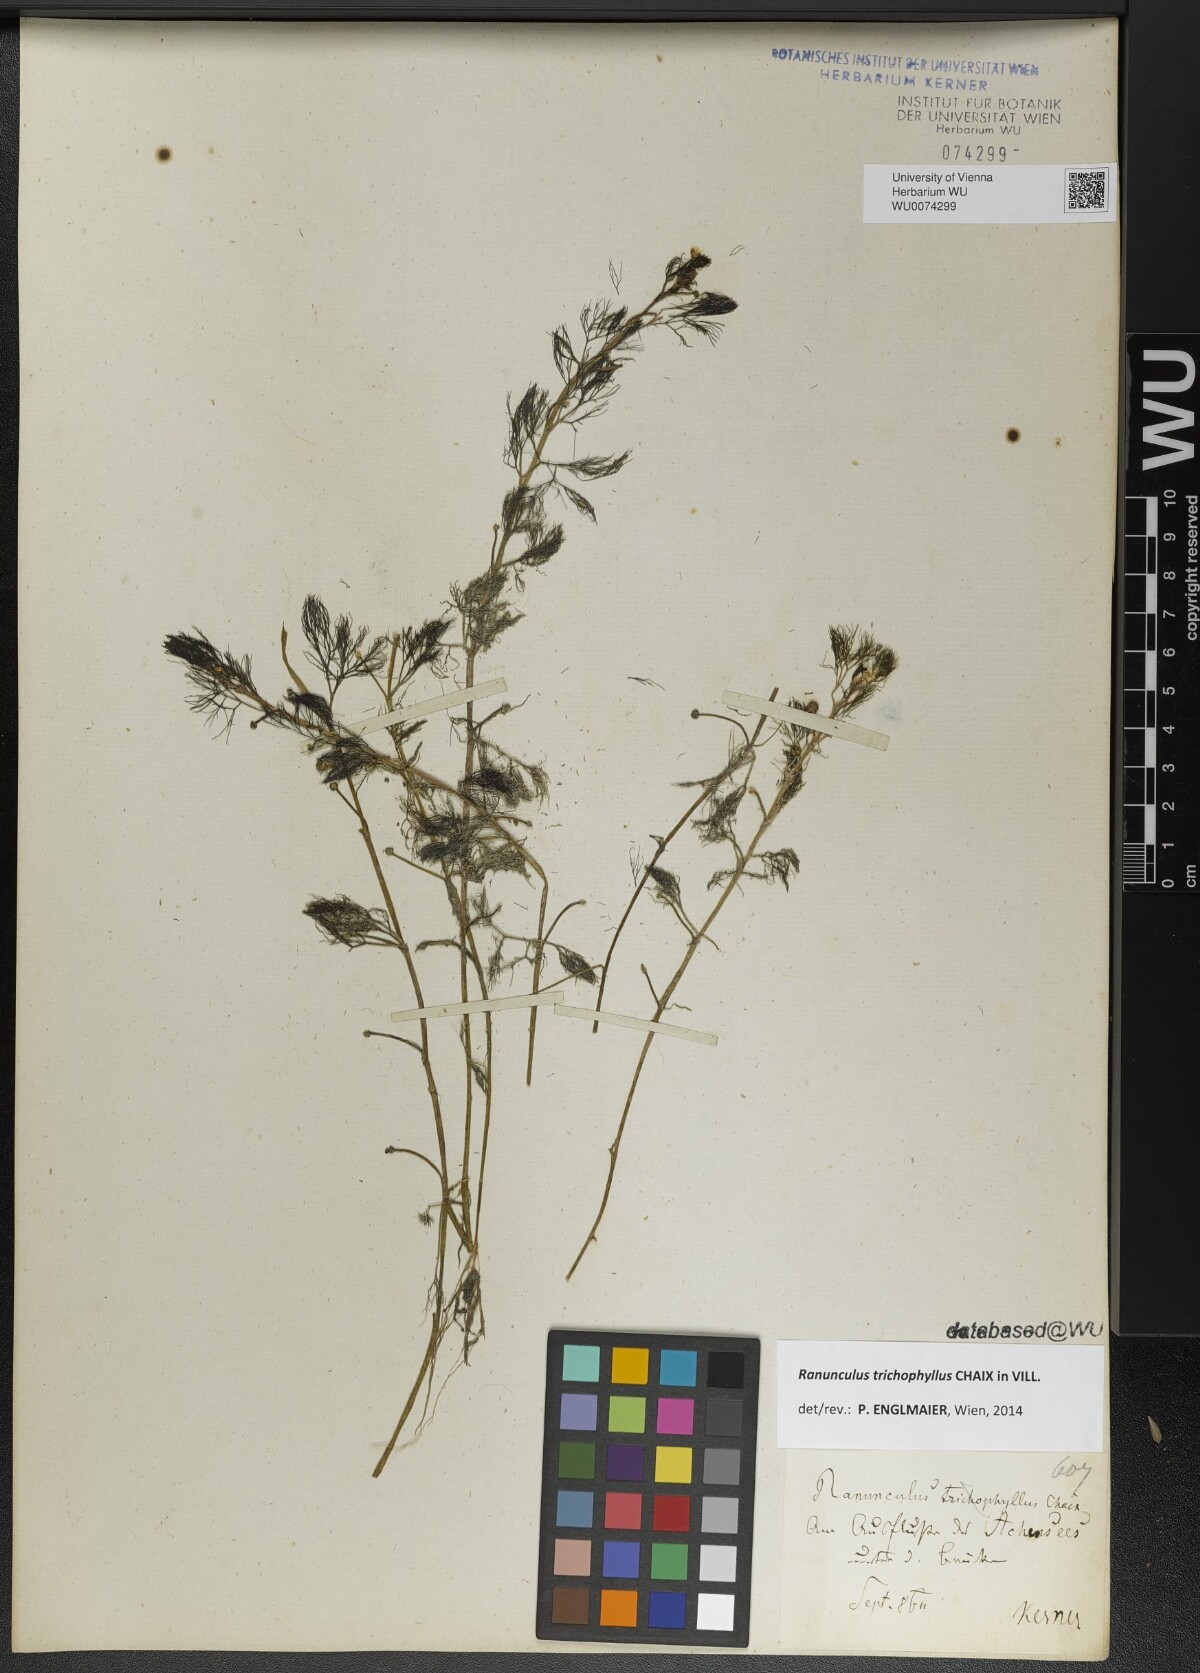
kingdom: Plantae
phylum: Tracheophyta
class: Magnoliopsida
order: Ranunculales
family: Ranunculaceae
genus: Ranunculus
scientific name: Ranunculus trichophyllus
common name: Thread-leaved water-crowfoot
